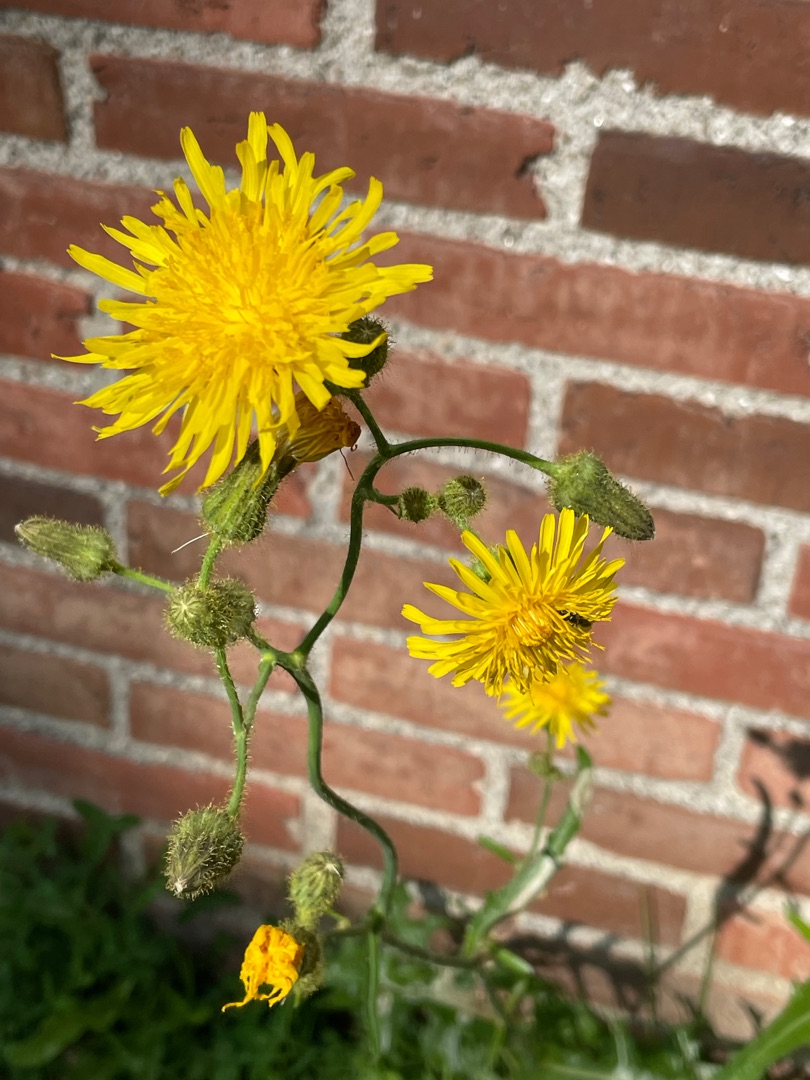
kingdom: Plantae
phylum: Tracheophyta
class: Magnoliopsida
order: Asterales
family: Asteraceae
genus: Sonchus
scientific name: Sonchus arvensis
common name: Ager-svinemælk
